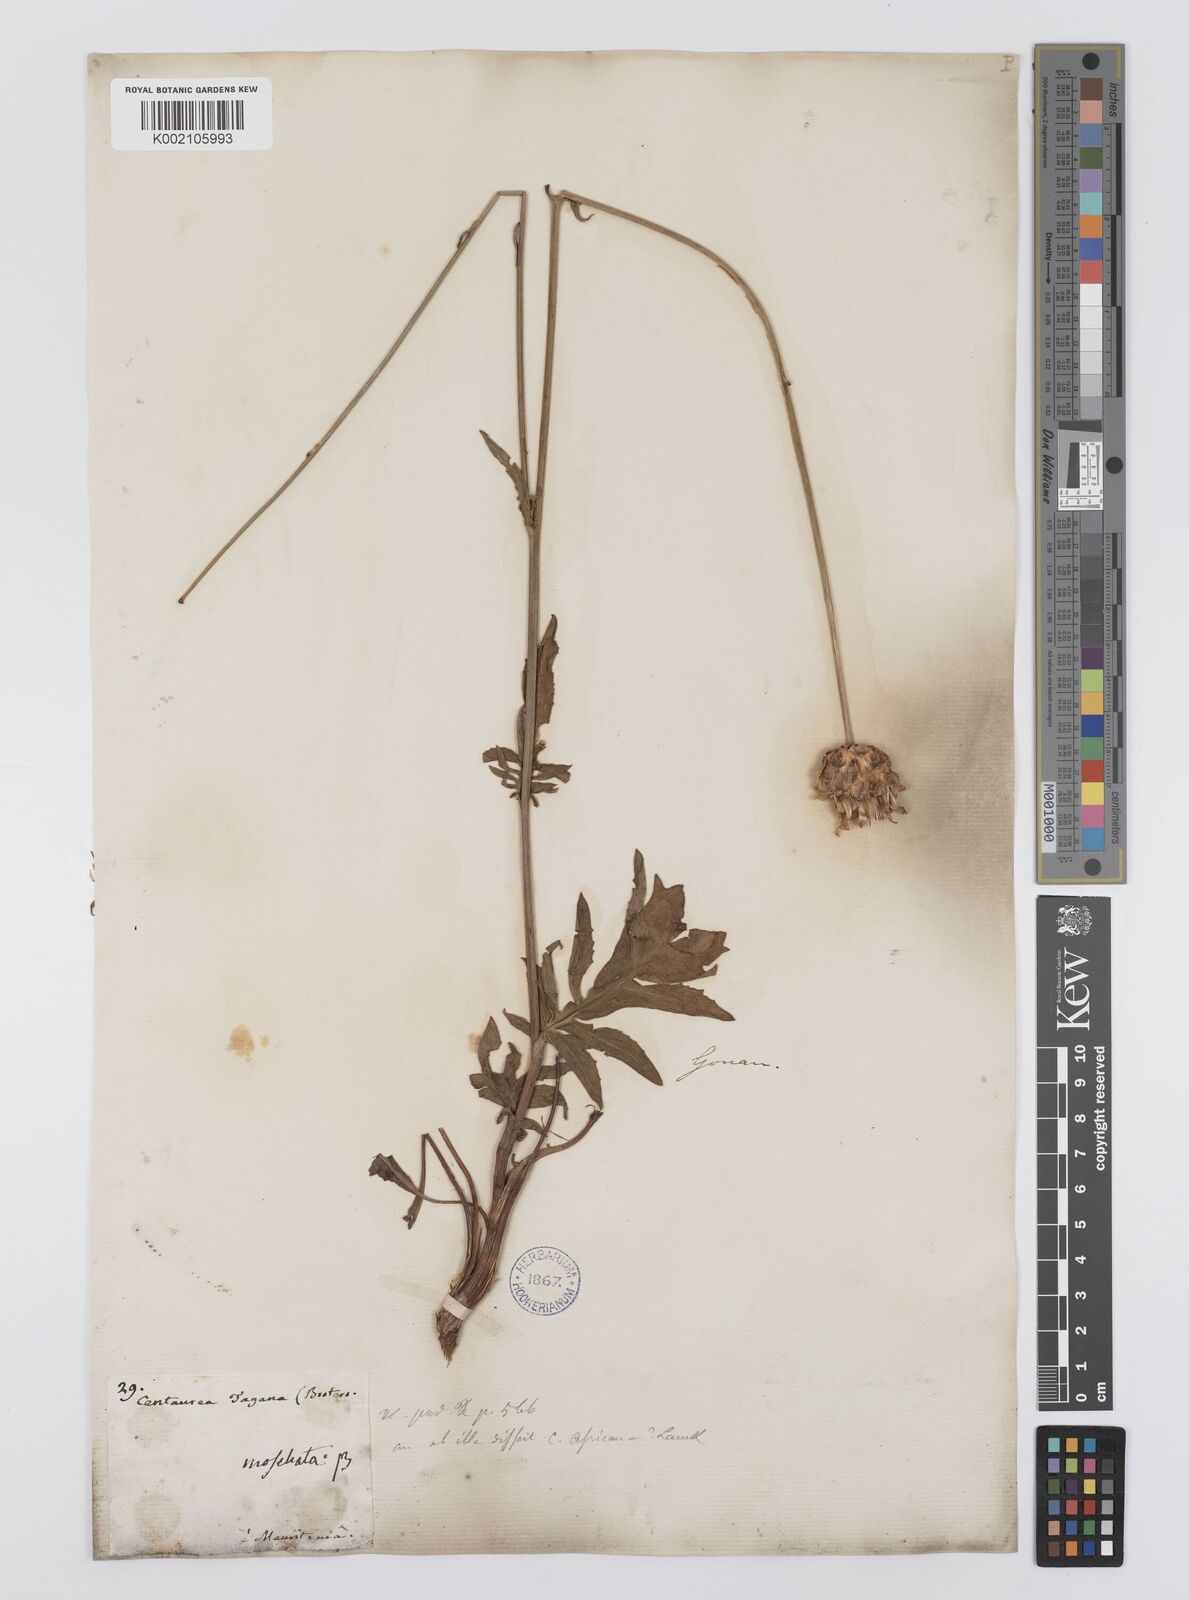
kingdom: Plantae
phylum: Tracheophyta
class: Magnoliopsida
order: Asterales
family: Asteraceae
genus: Rhaponticoides
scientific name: Rhaponticoides africana
